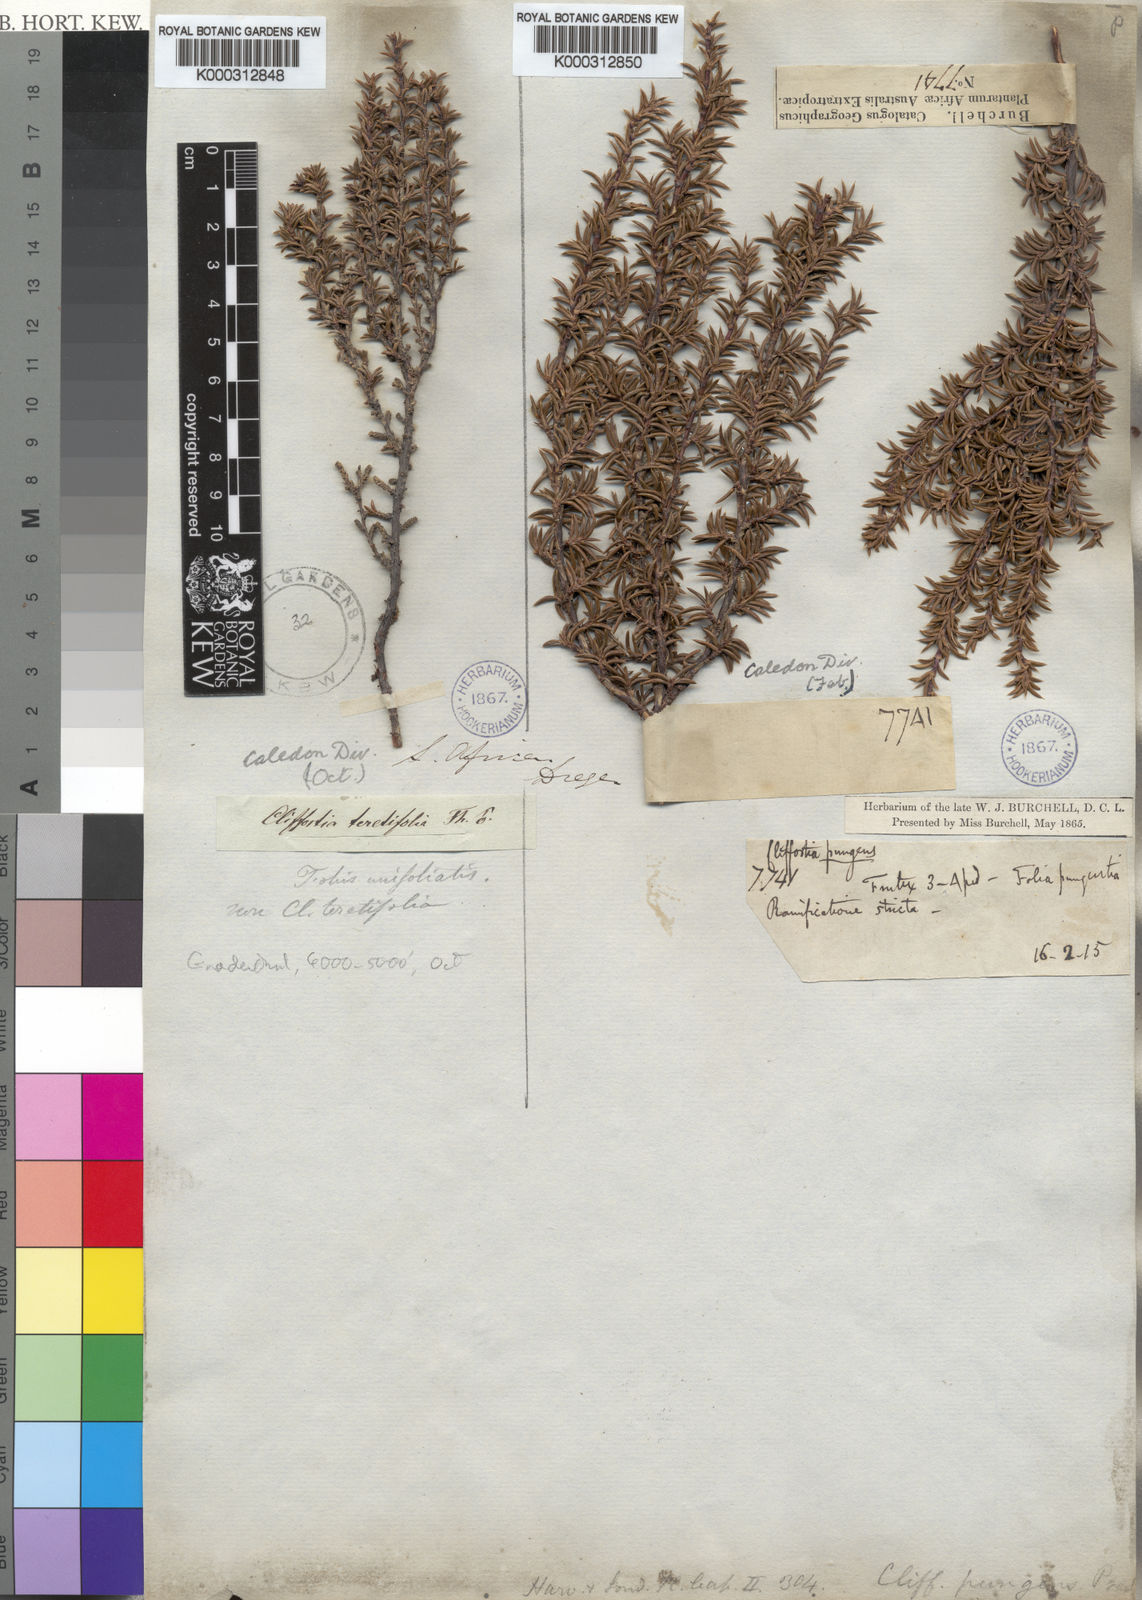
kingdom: Plantae
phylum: Tracheophyta
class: Magnoliopsida
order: Rosales
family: Rosaceae
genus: Cliffortia
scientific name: Cliffortia pungens
